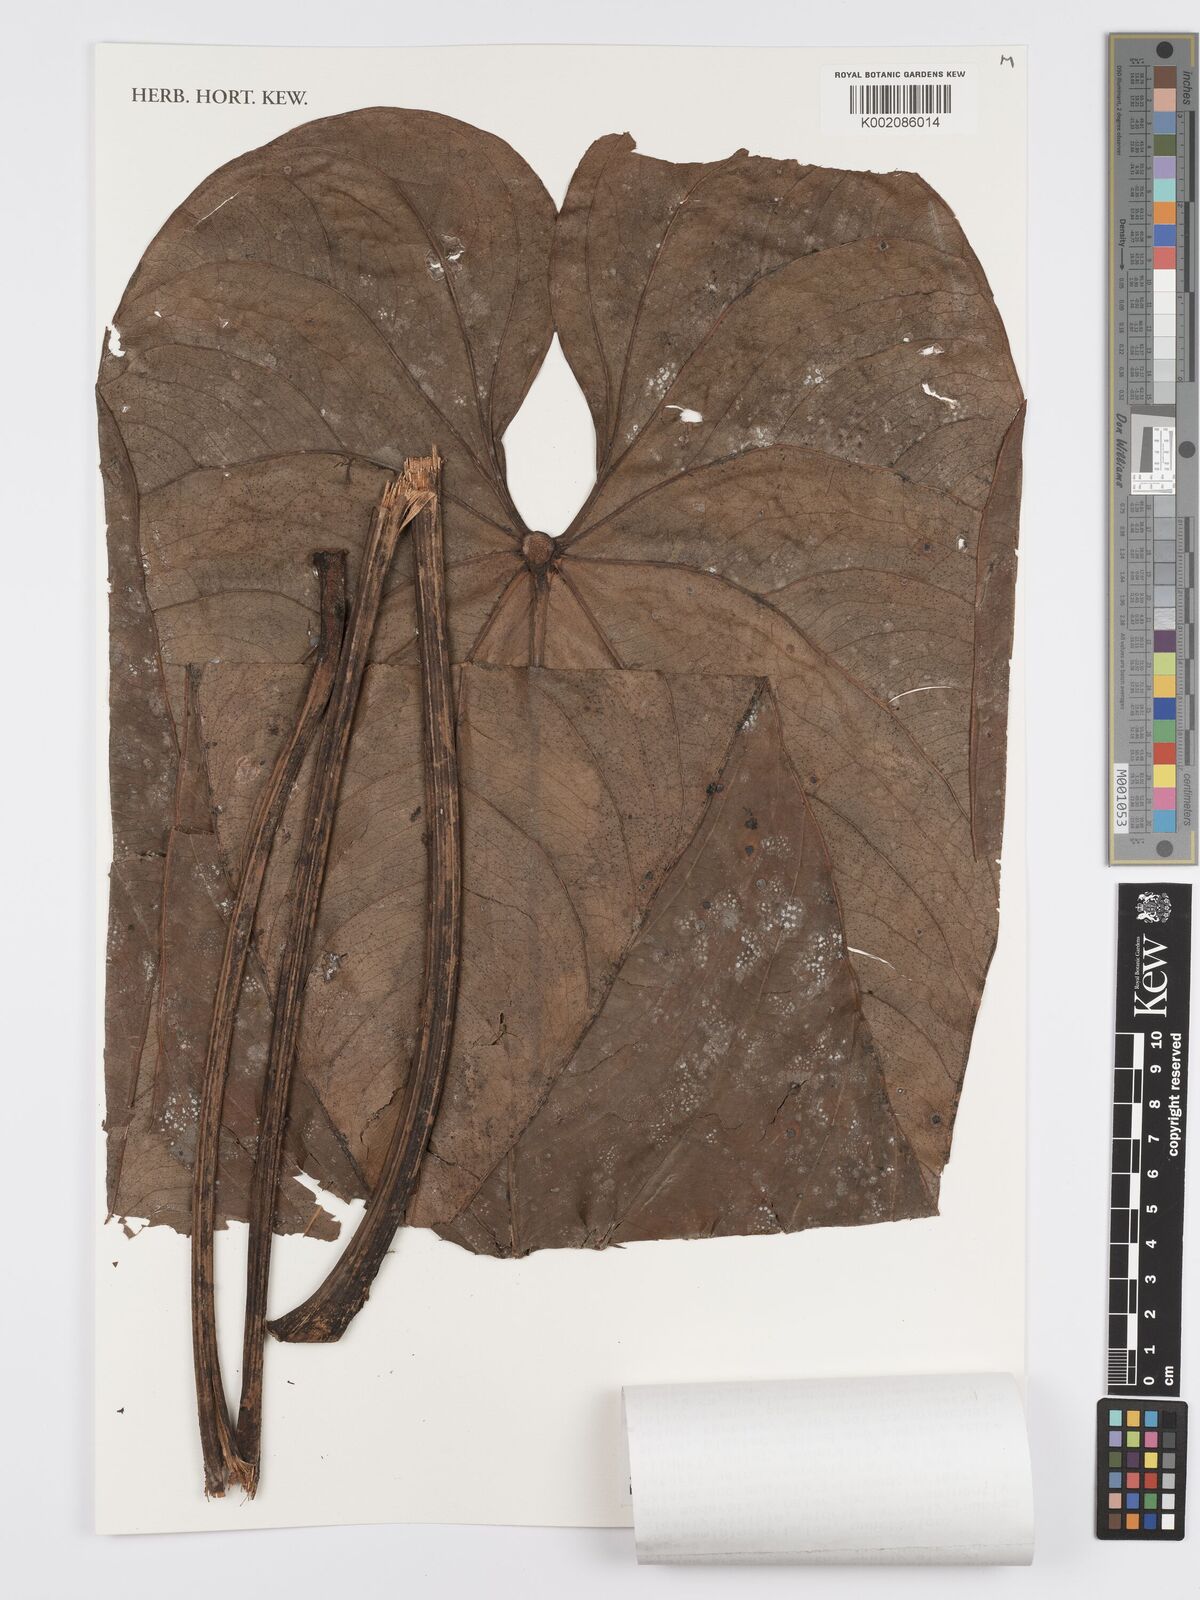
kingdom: Plantae
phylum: Tracheophyta
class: Liliopsida
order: Alismatales
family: Araceae
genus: Anthurium
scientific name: Anthurium effusispathum
